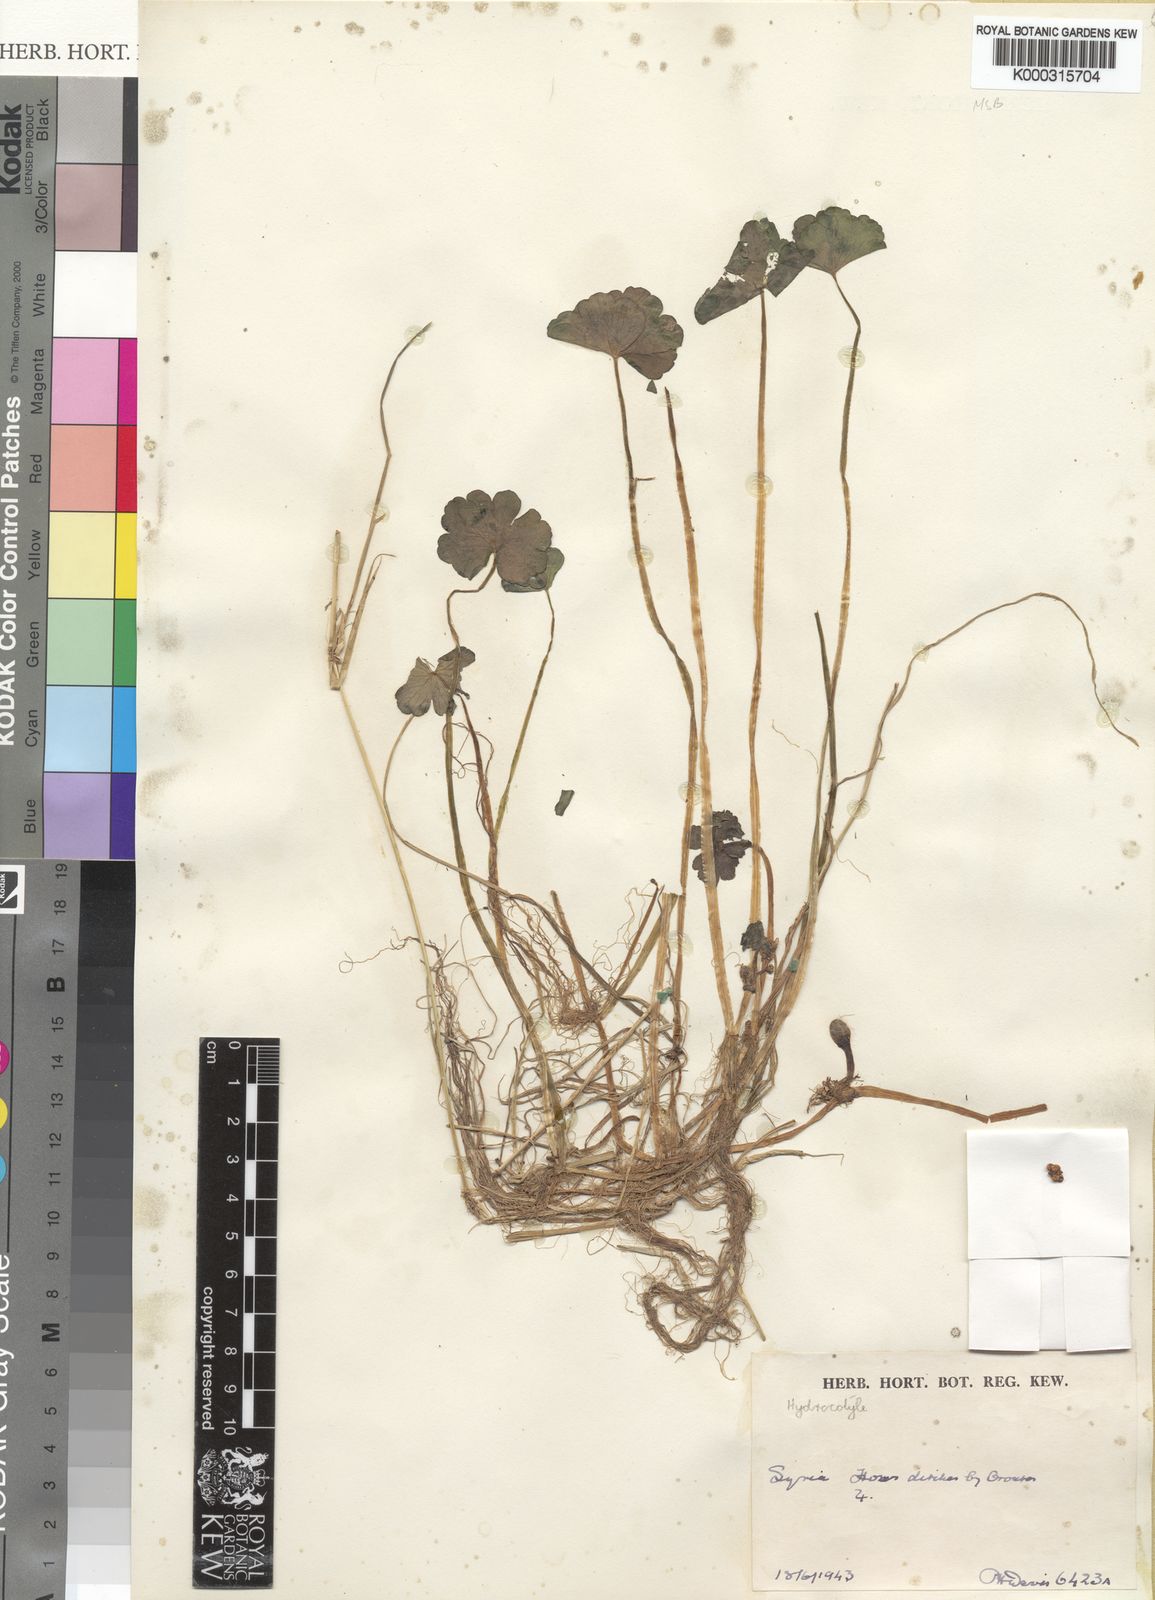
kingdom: Plantae
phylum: Tracheophyta
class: Magnoliopsida
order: Apiales
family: Araliaceae
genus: Hydrocotyle
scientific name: Hydrocotyle ranunculoides
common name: Floating pennywort
